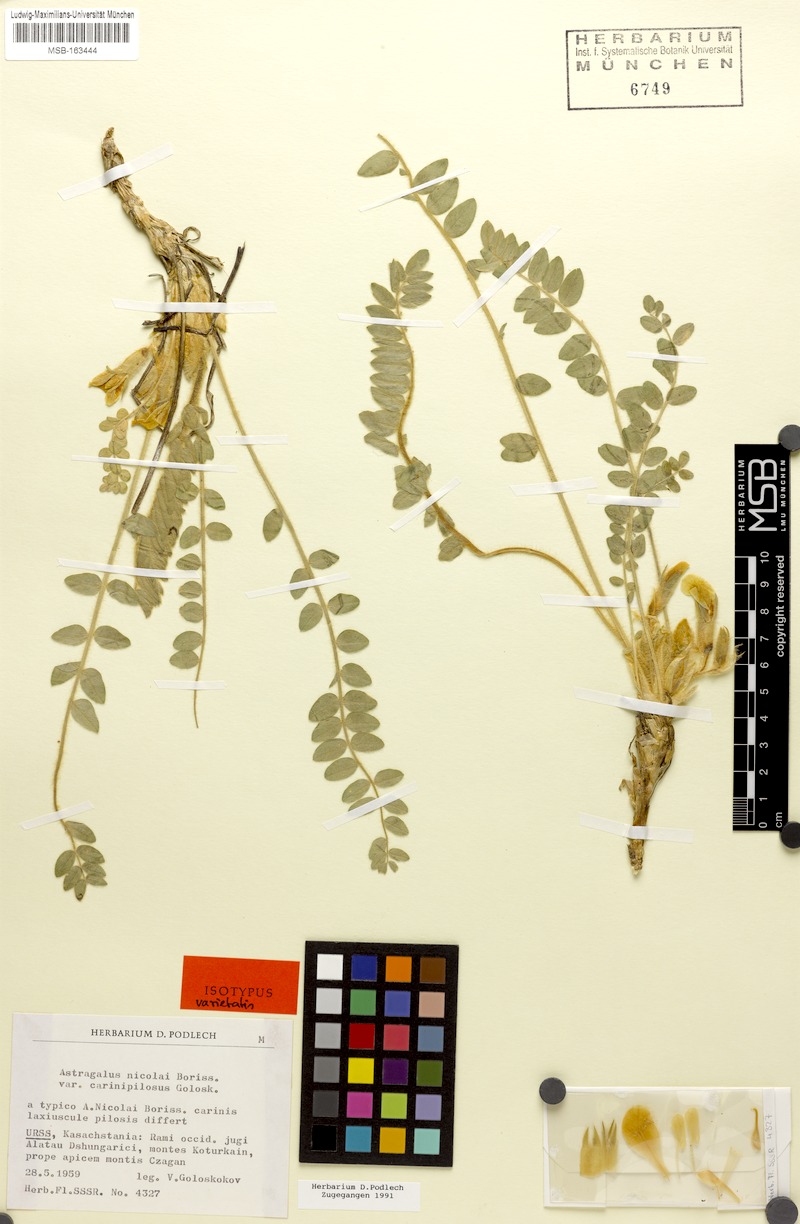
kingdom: Plantae
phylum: Tracheophyta
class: Magnoliopsida
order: Fabales
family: Fabaceae
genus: Astragalus
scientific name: Astragalus nicolaii
